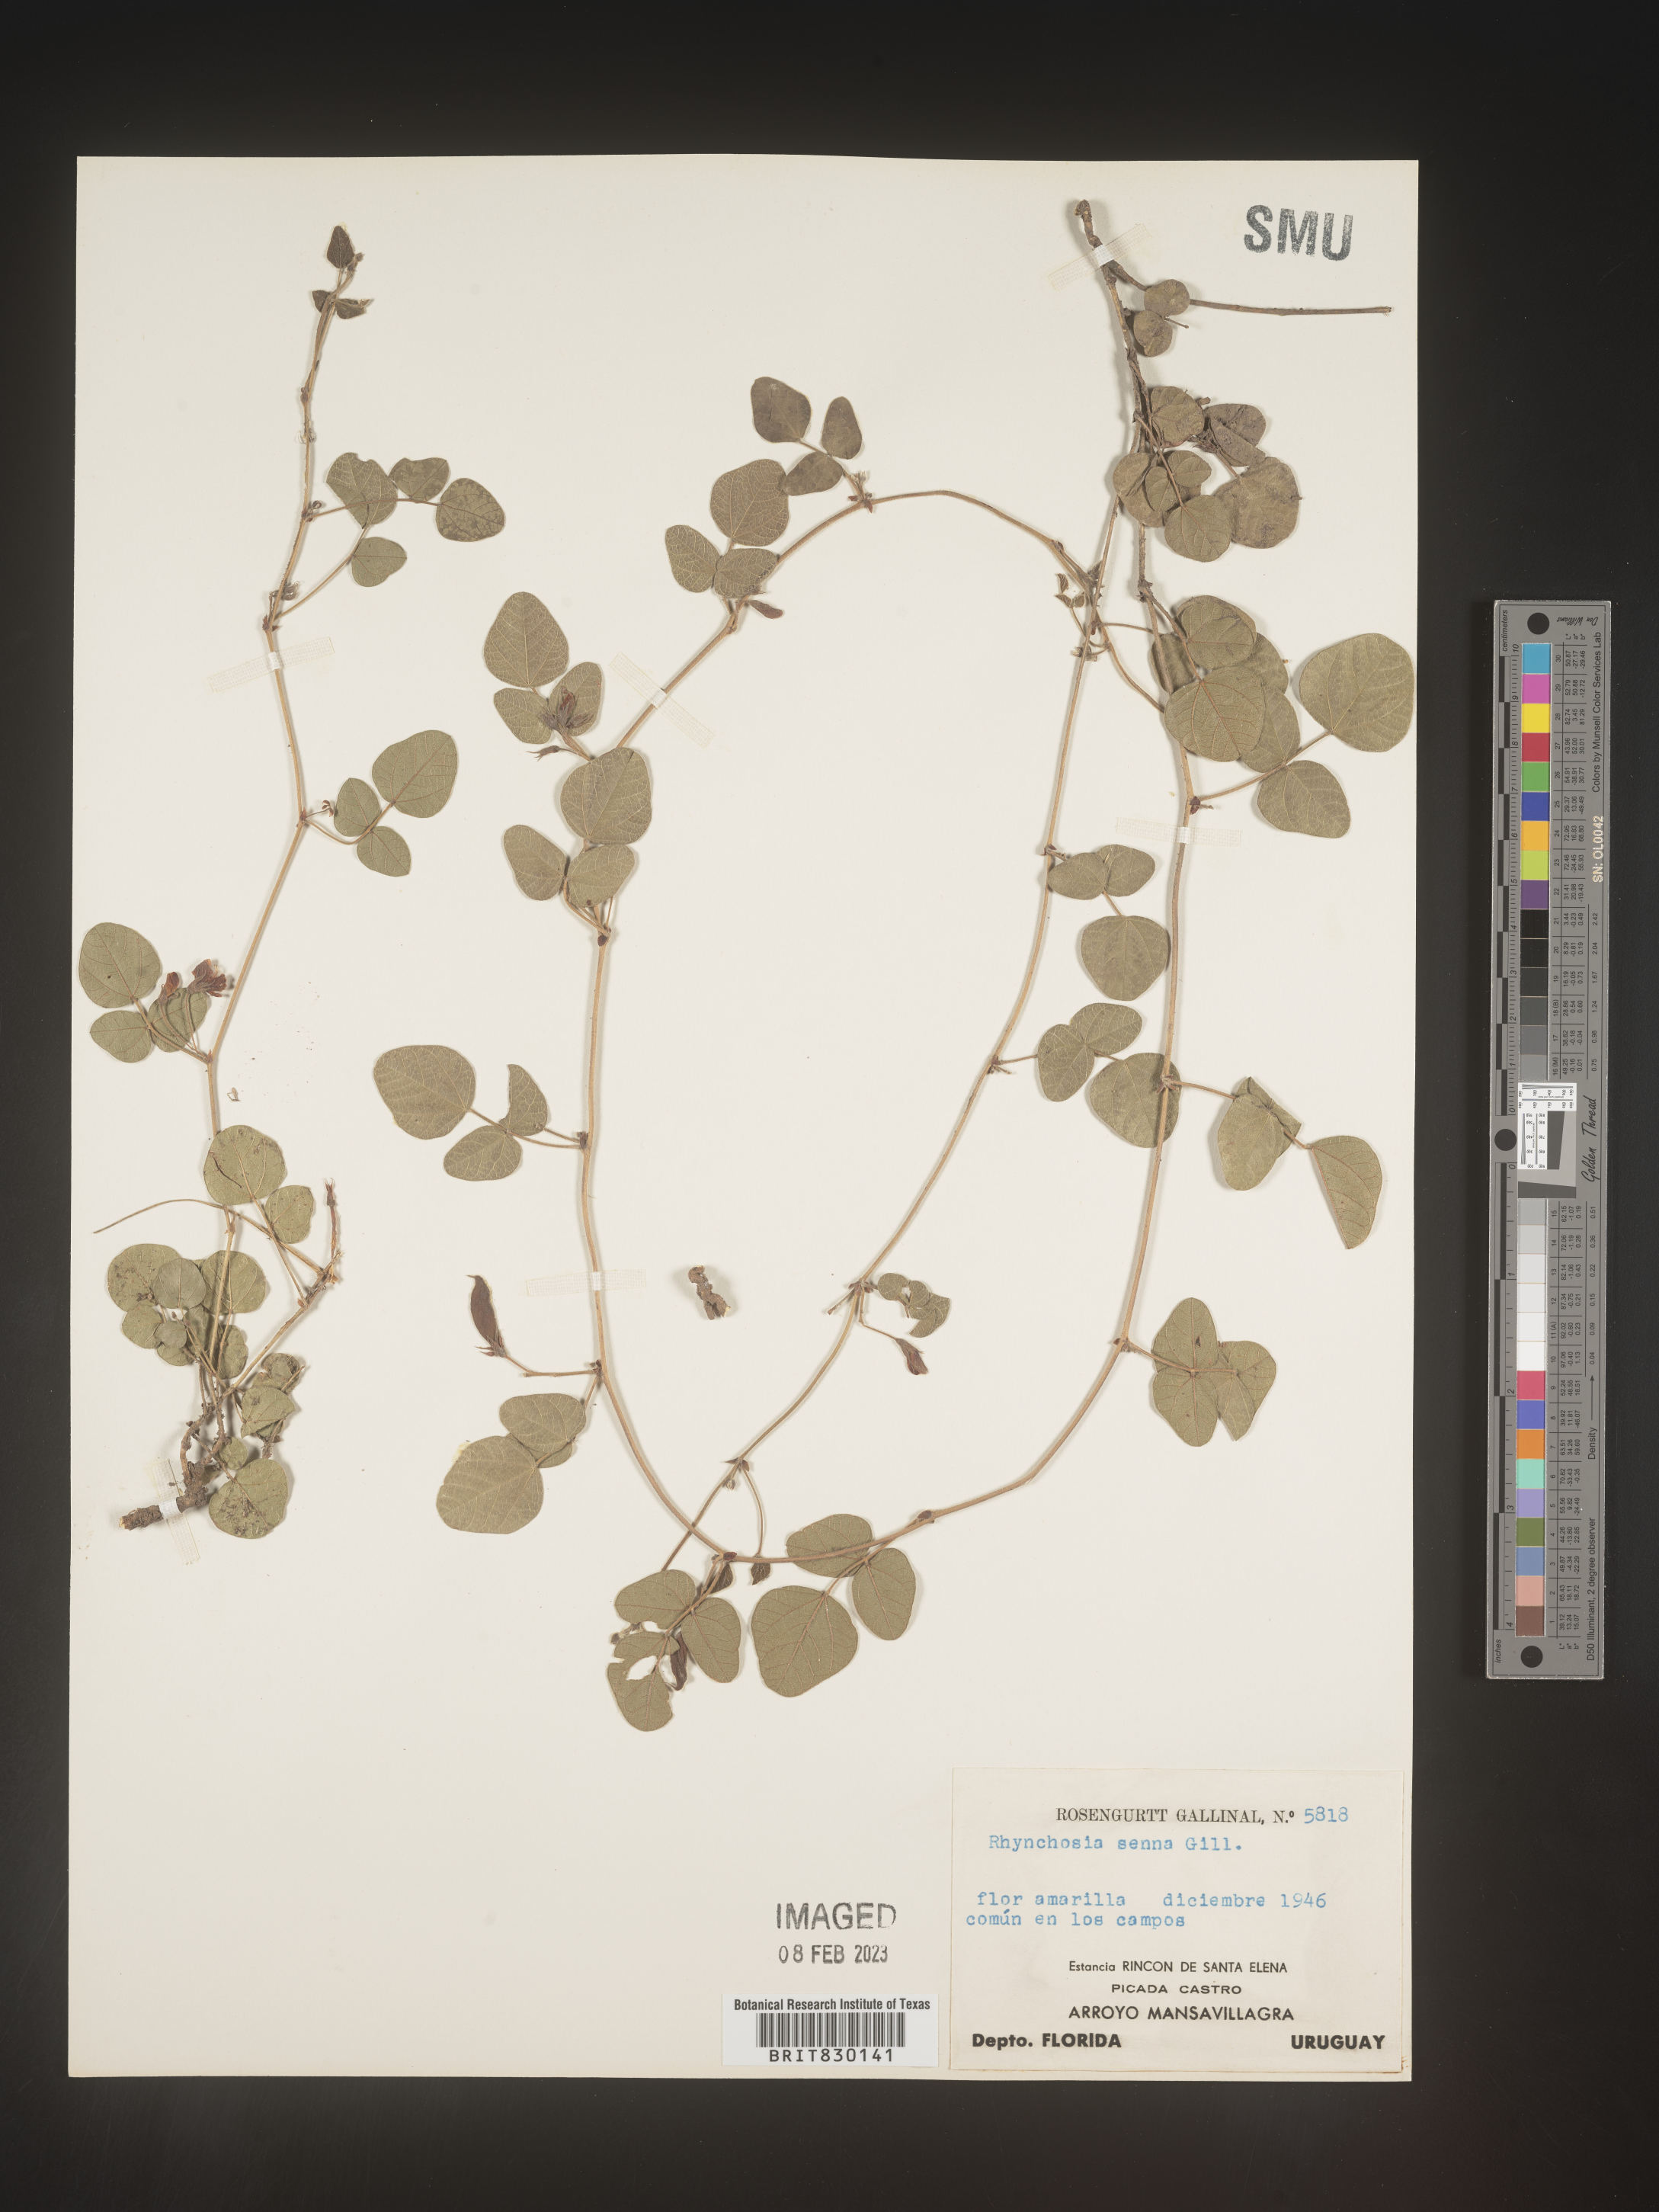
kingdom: Plantae
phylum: Tracheophyta
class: Magnoliopsida
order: Fabales
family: Fabaceae
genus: Rhynchosia
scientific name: Rhynchosia
